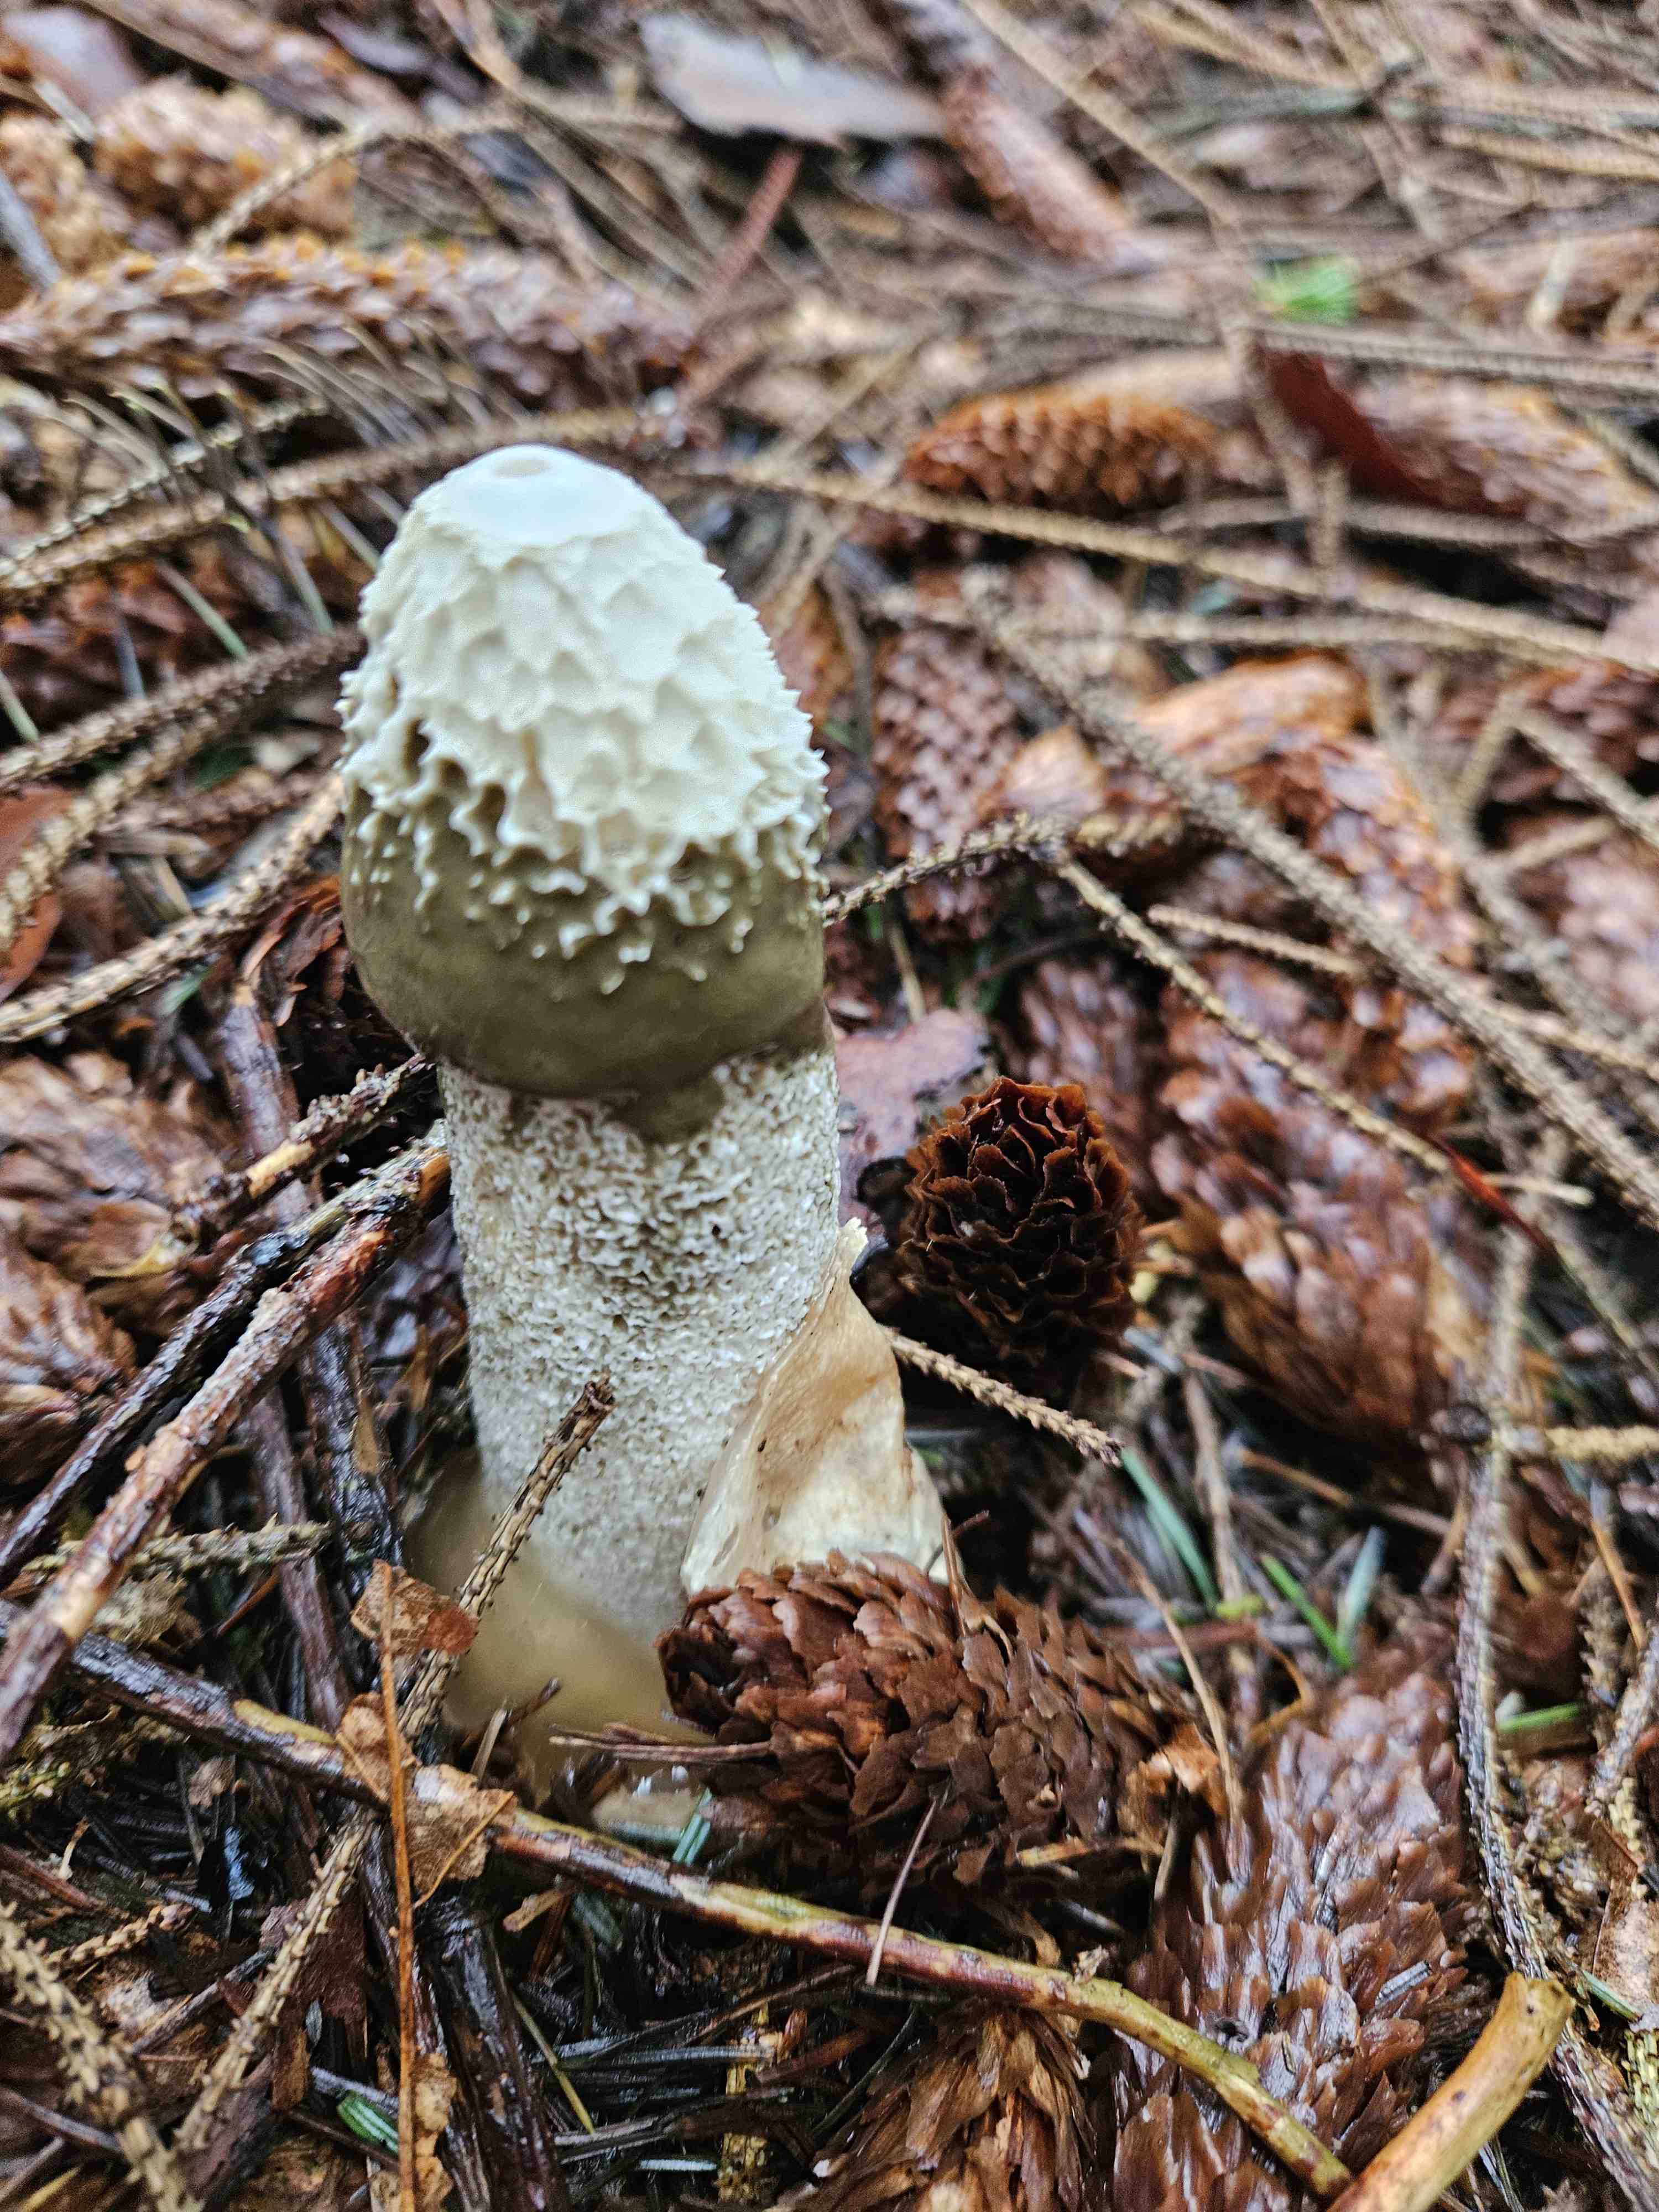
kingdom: Fungi
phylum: Basidiomycota
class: Agaricomycetes
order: Phallales
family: Phallaceae
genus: Phallus
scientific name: Phallus impudicus
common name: almindelig stinksvamp
